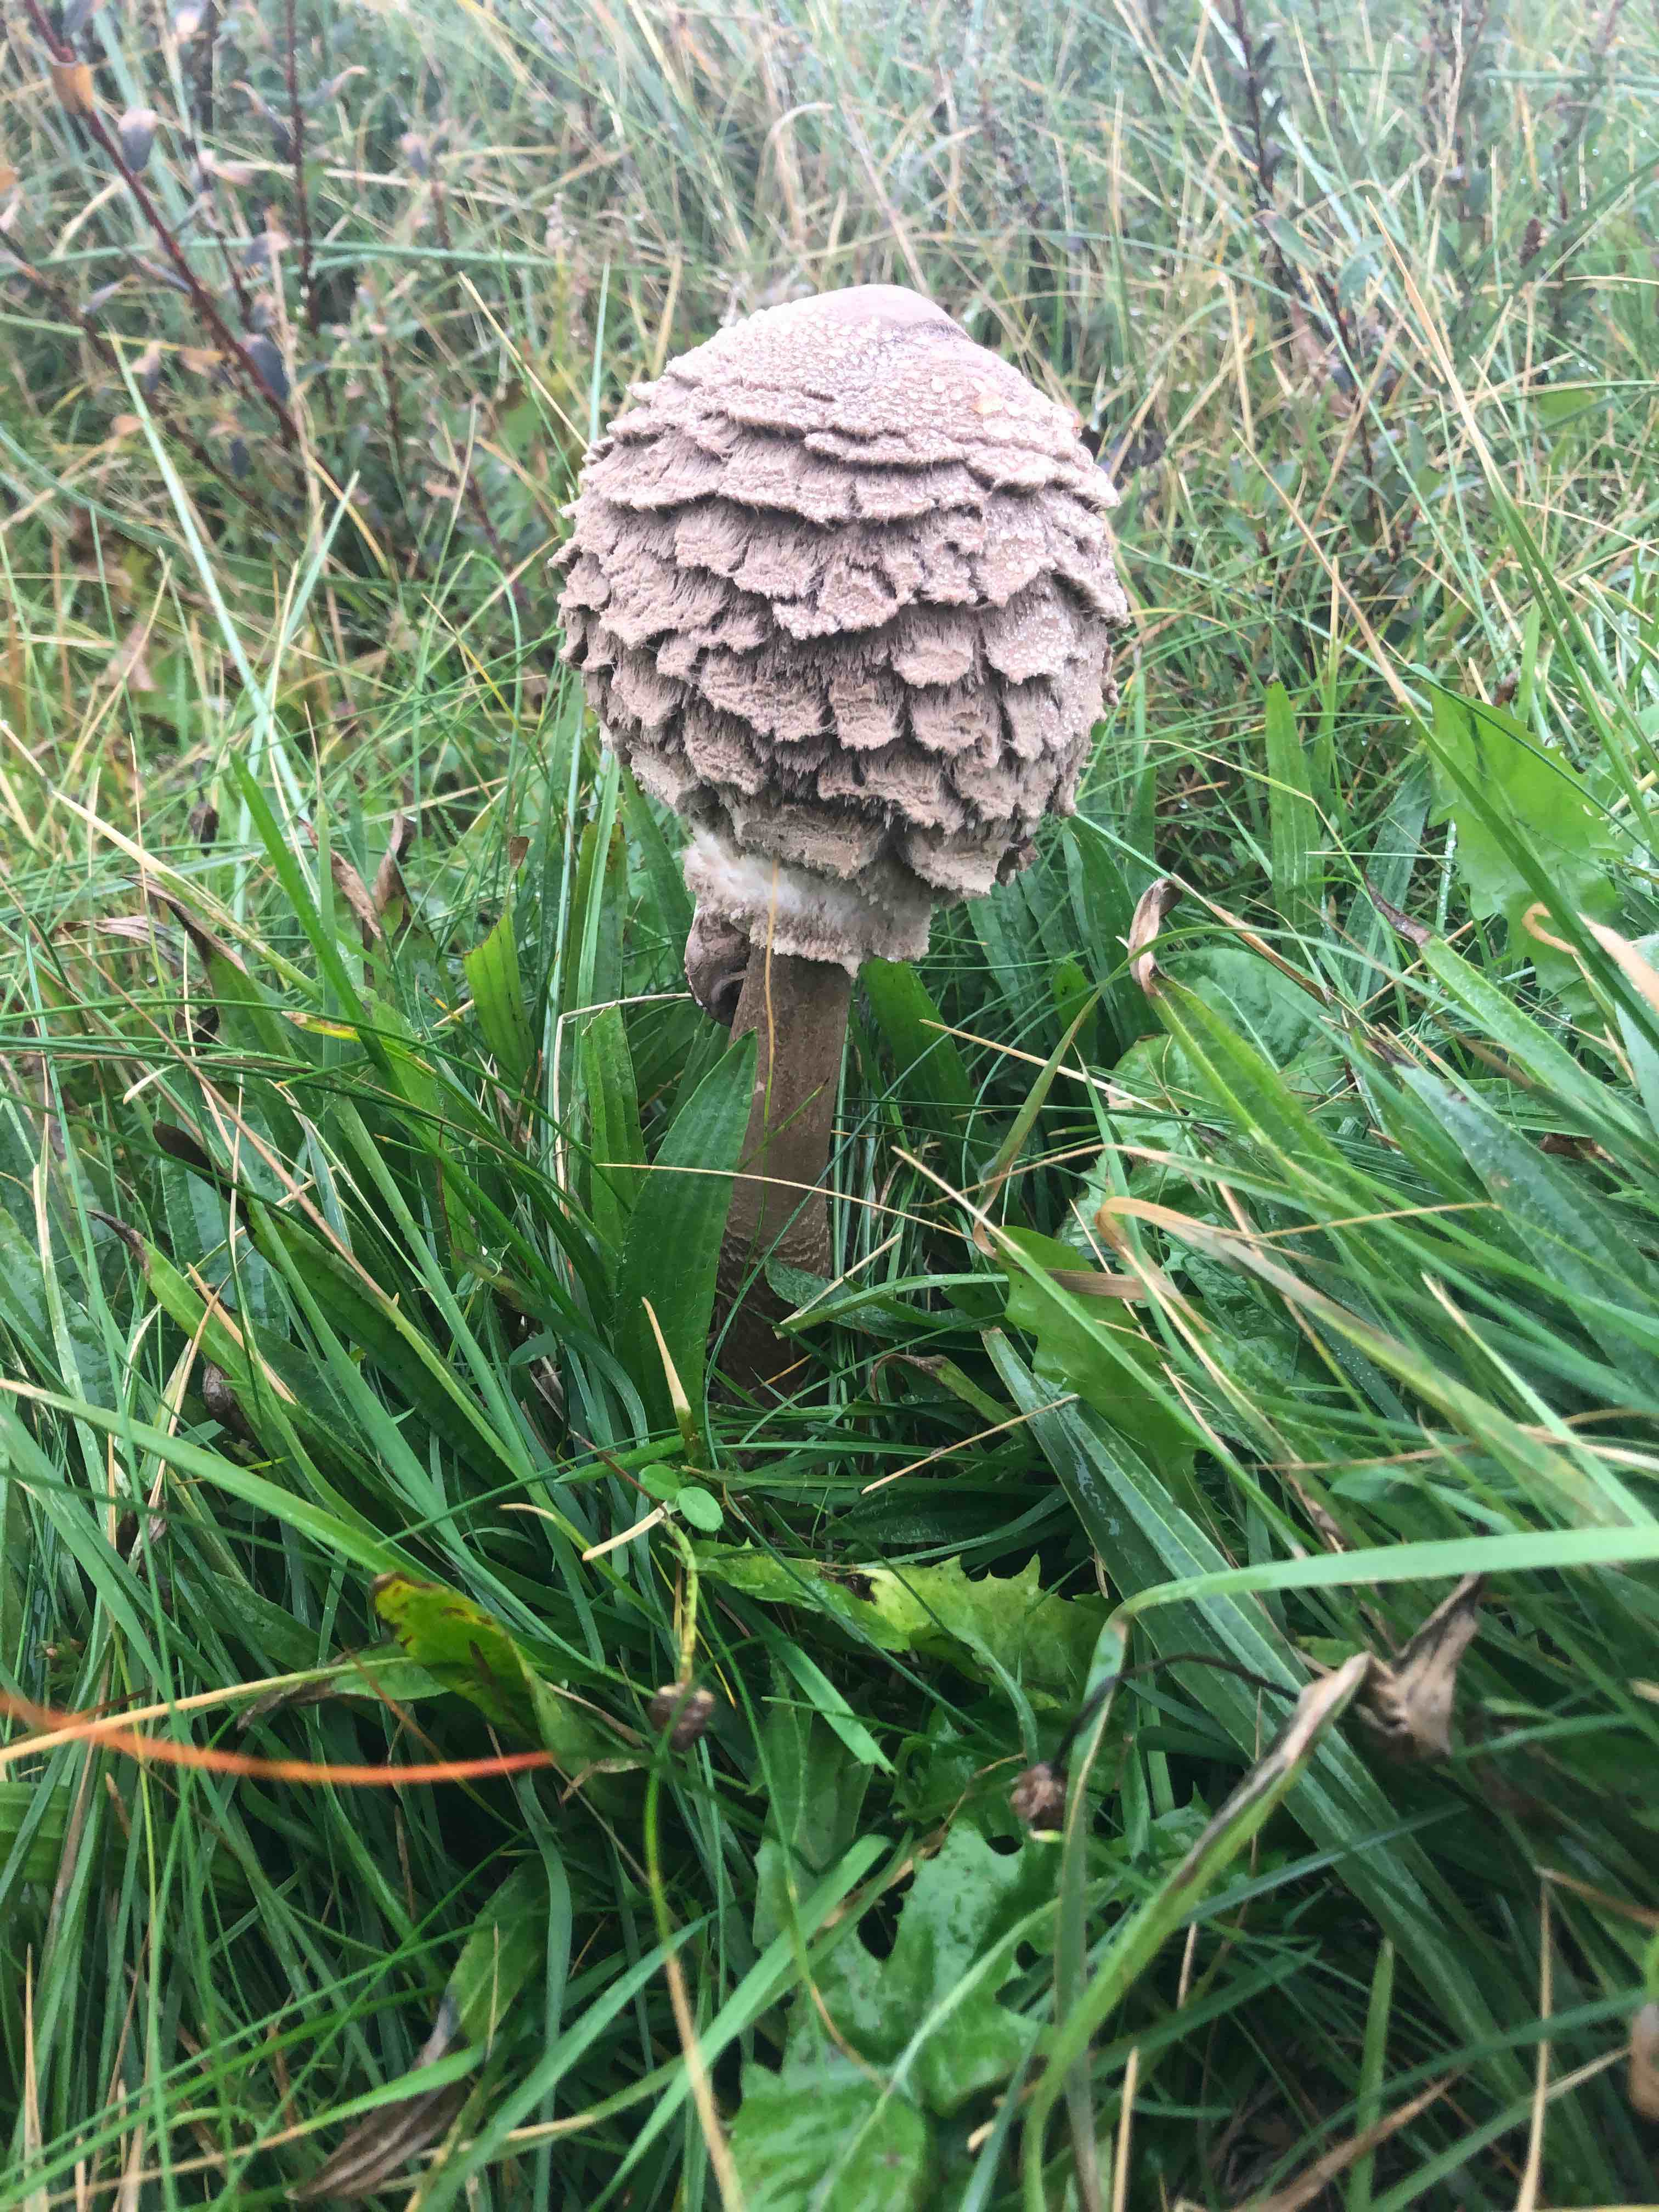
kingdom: Fungi
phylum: Basidiomycota
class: Agaricomycetes
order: Agaricales
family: Agaricaceae
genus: Macrolepiota
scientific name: Macrolepiota procera
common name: stor kæmpeparasolhat
